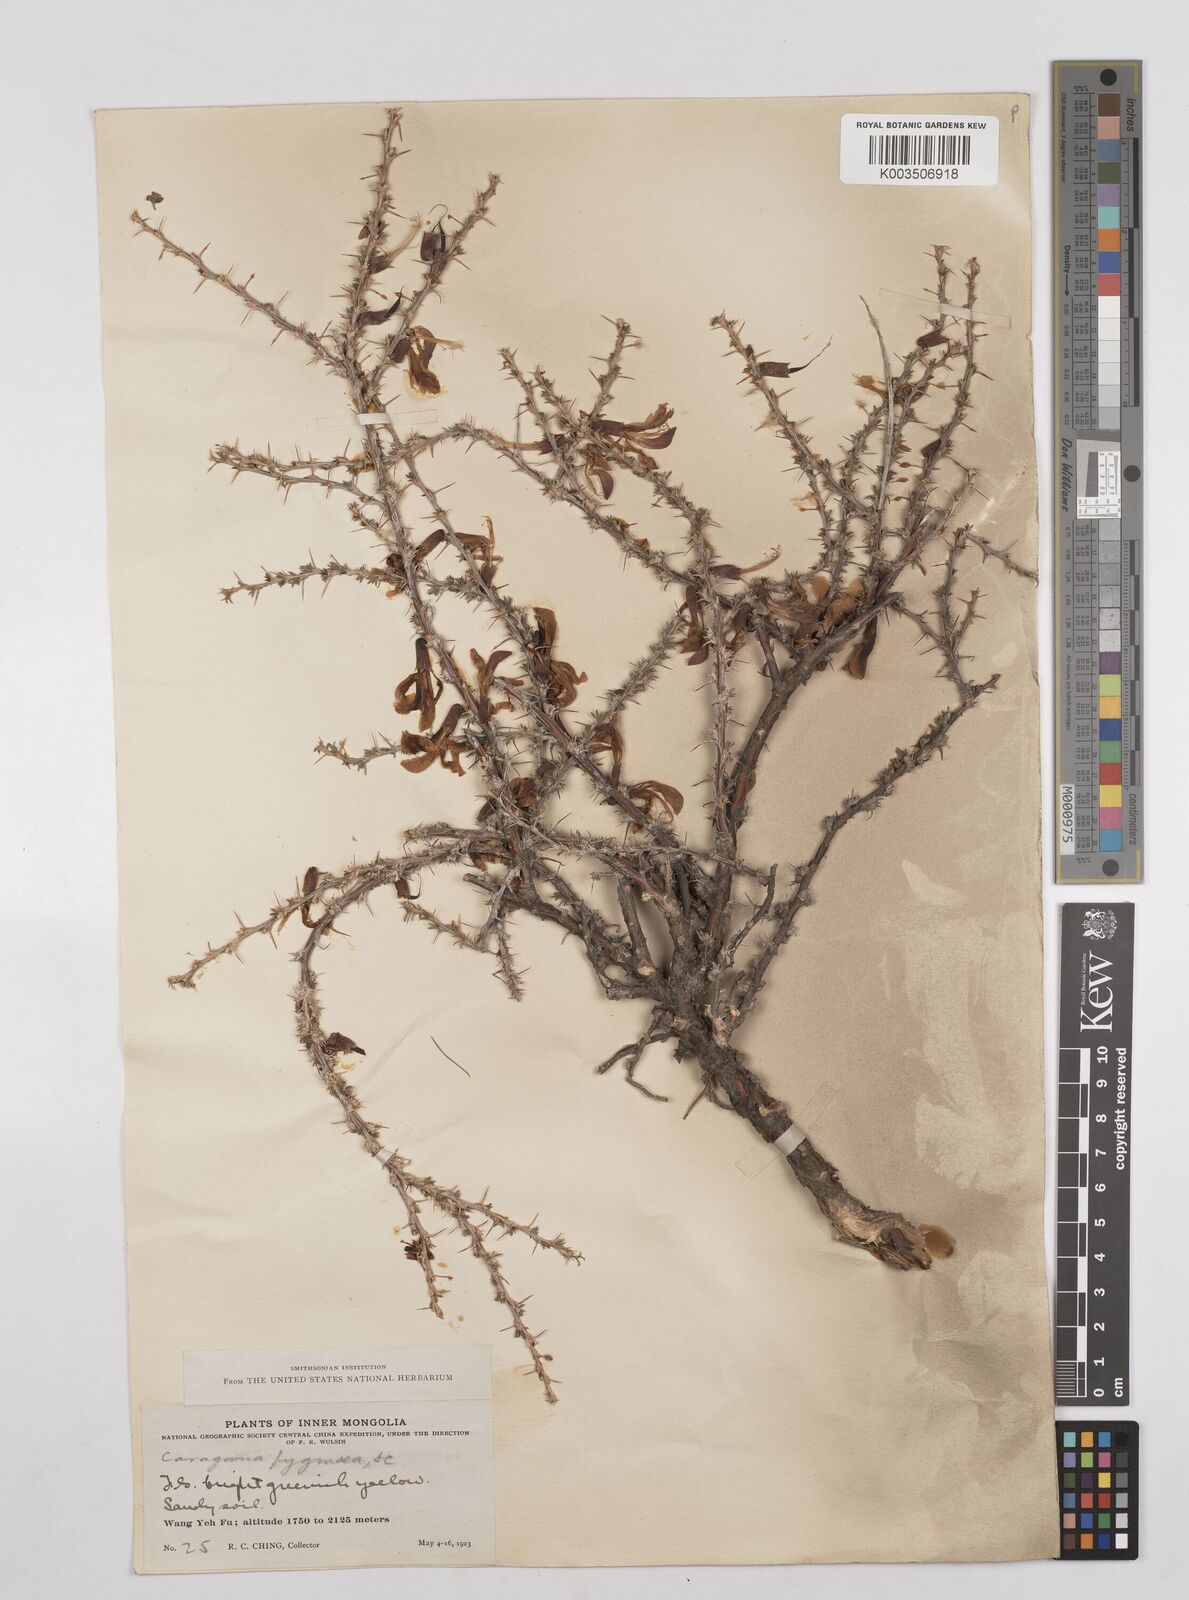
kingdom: Plantae
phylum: Tracheophyta
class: Magnoliopsida
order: Fabales
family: Fabaceae
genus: Caragana
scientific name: Caragana pygmaea
